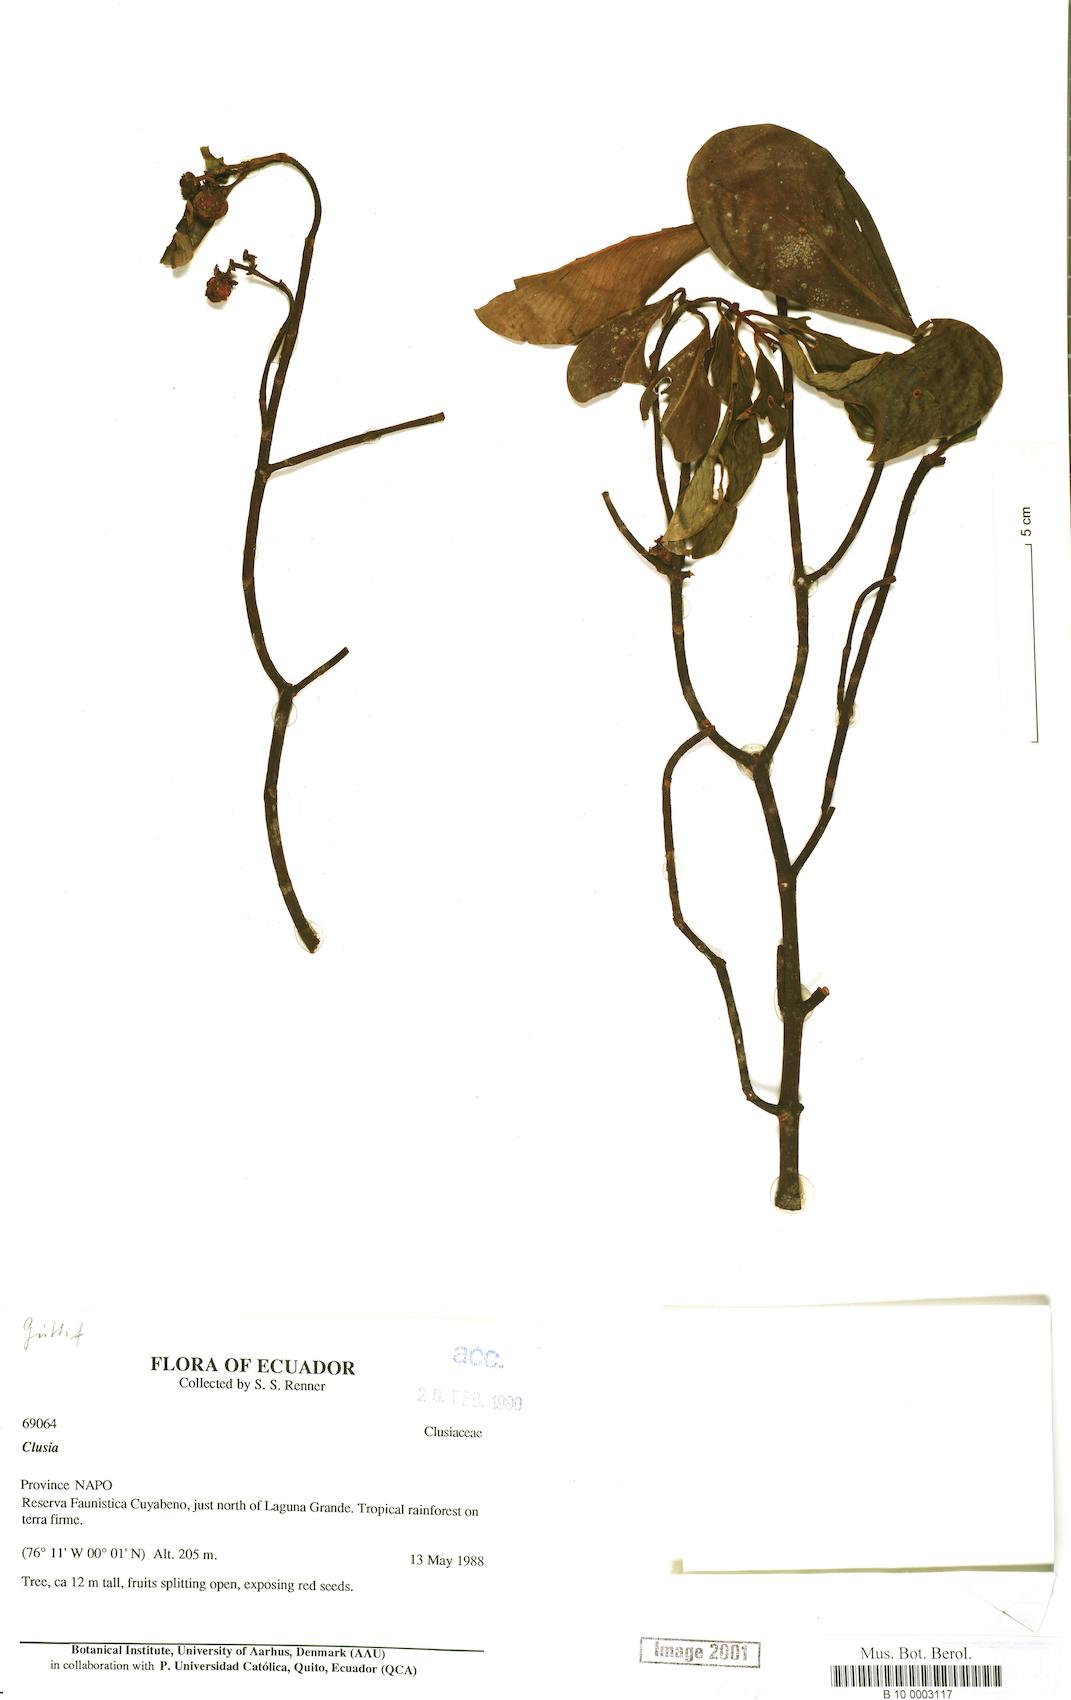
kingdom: Plantae
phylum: Tracheophyta
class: Magnoliopsida
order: Malpighiales
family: Clusiaceae
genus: Clusia
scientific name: Clusia
